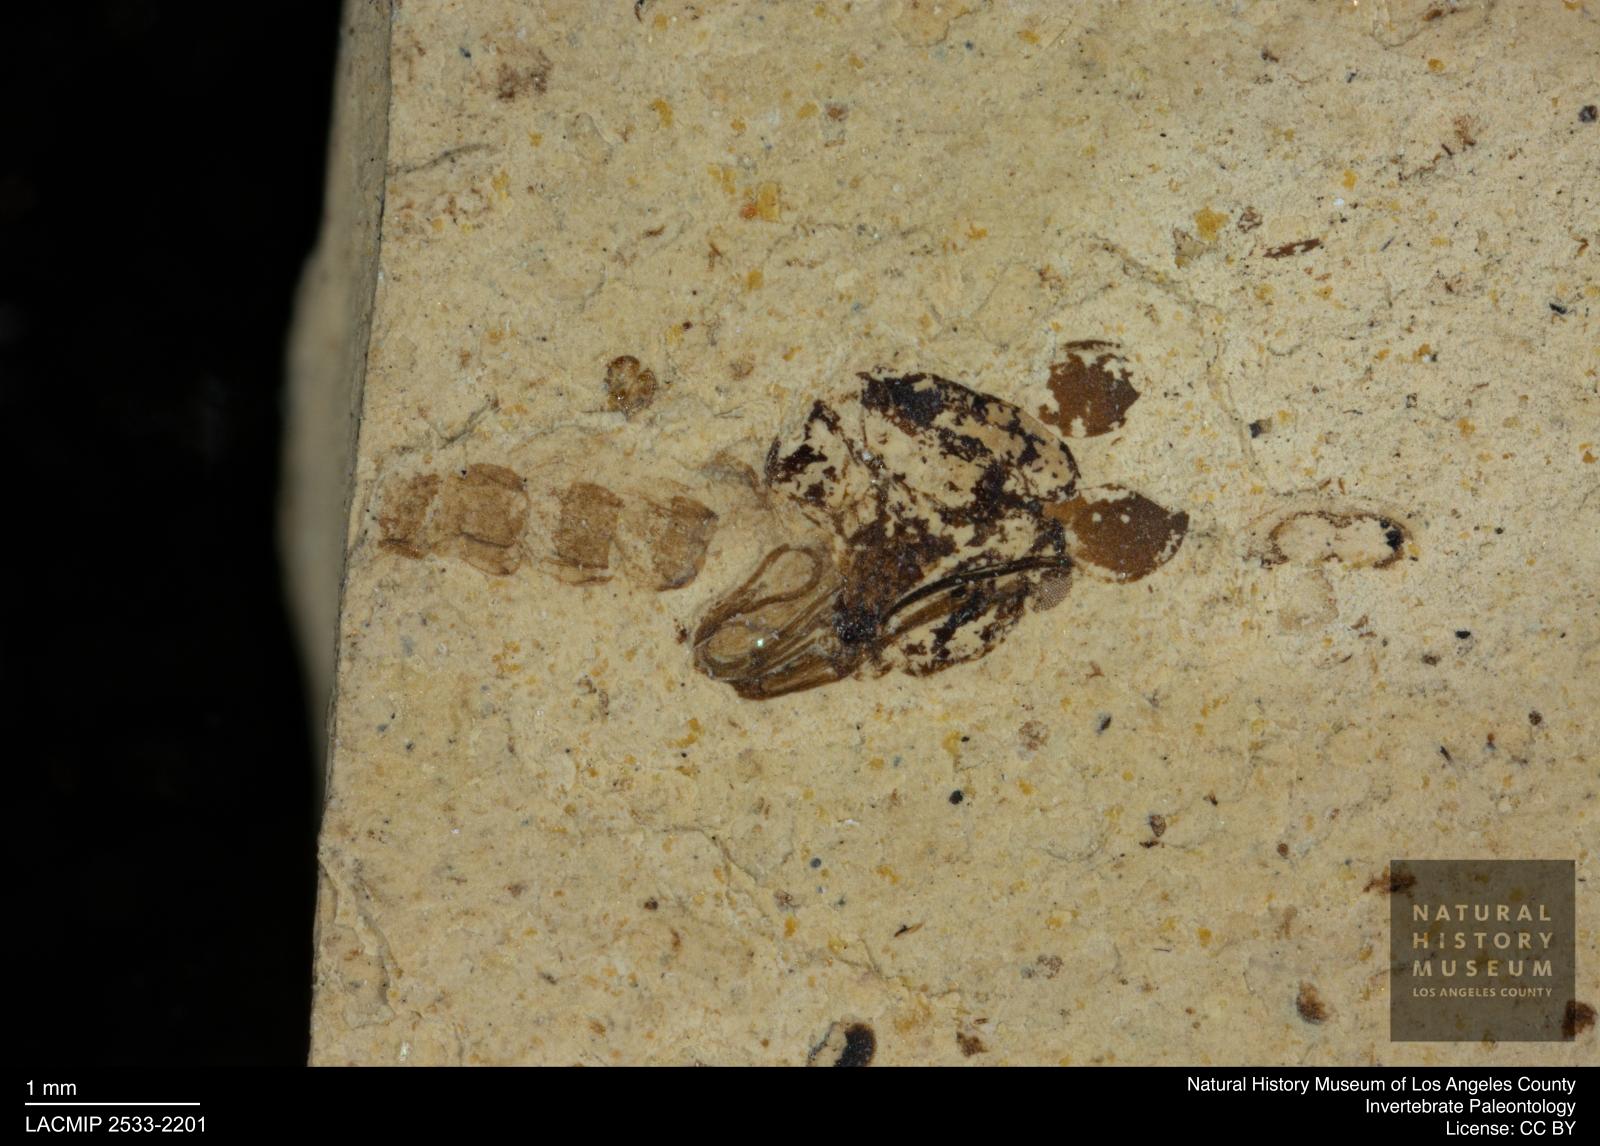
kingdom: Animalia
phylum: Arthropoda
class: Insecta
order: Diptera
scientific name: Diptera
